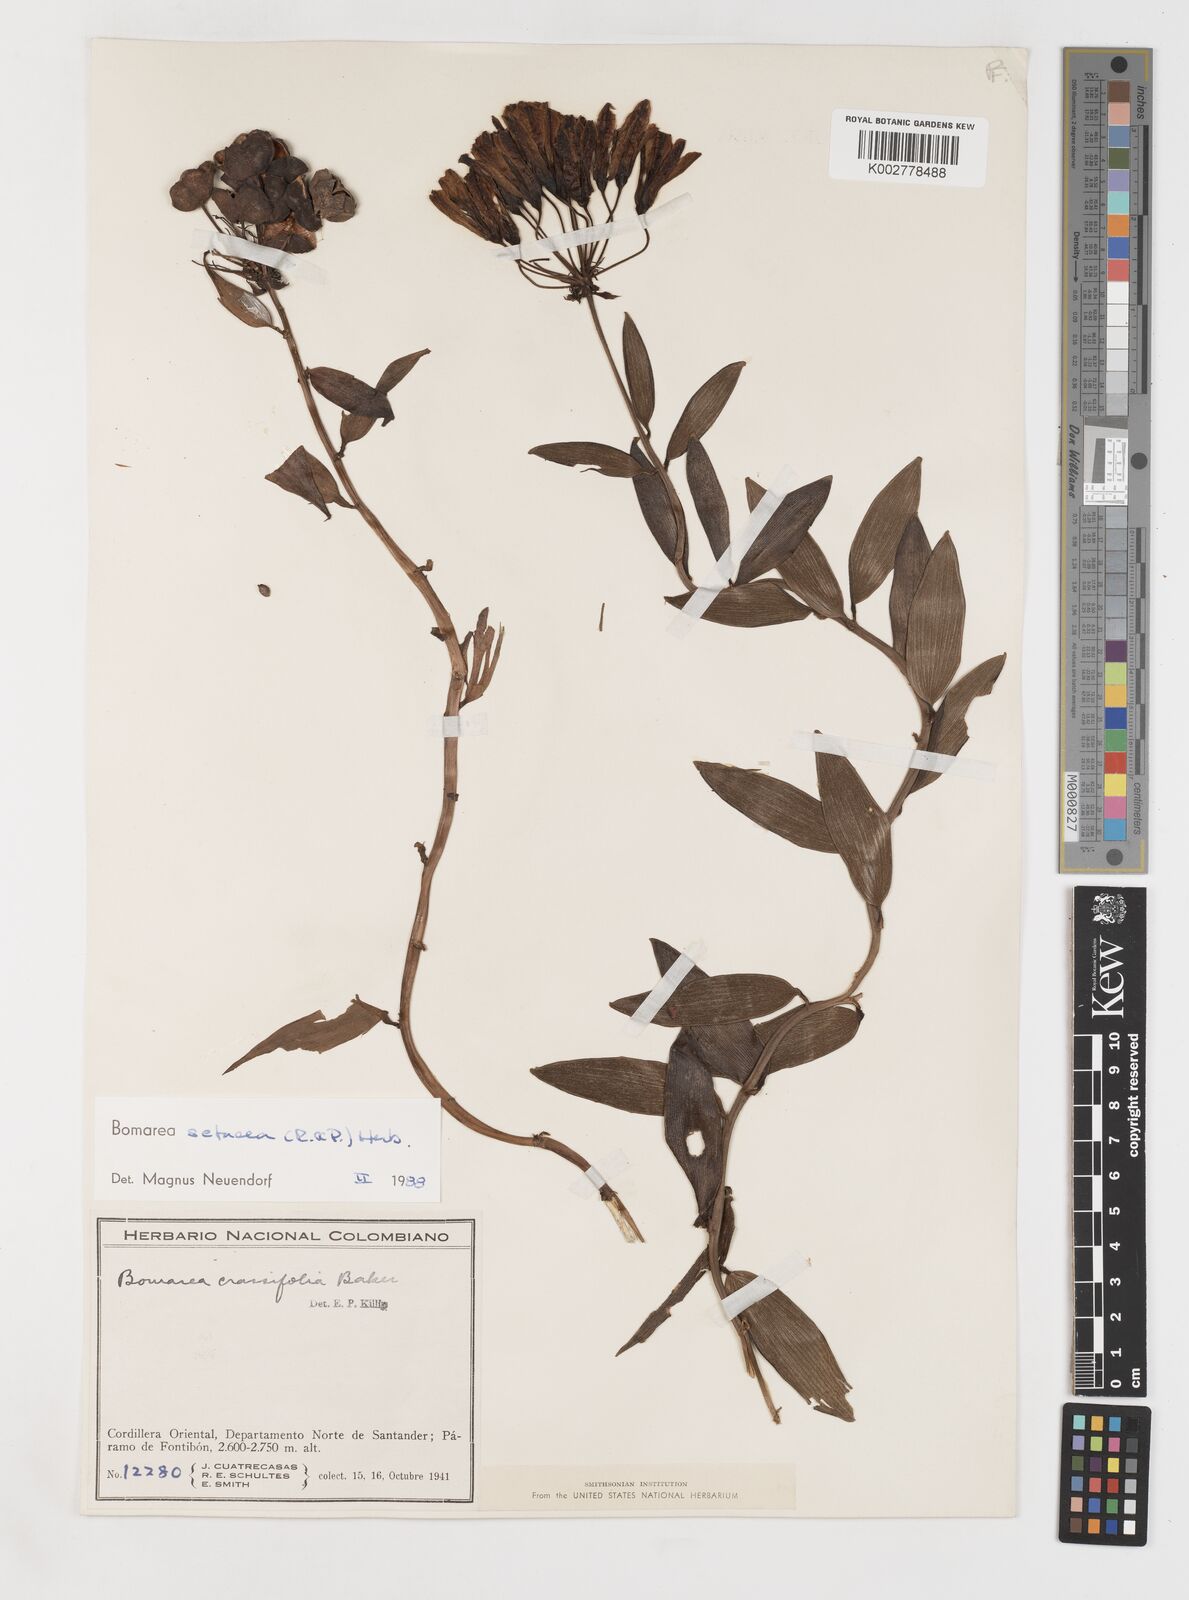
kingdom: Plantae
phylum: Tracheophyta
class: Liliopsida
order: Liliales
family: Alstroemeriaceae
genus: Bomarea
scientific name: Bomarea setacea
